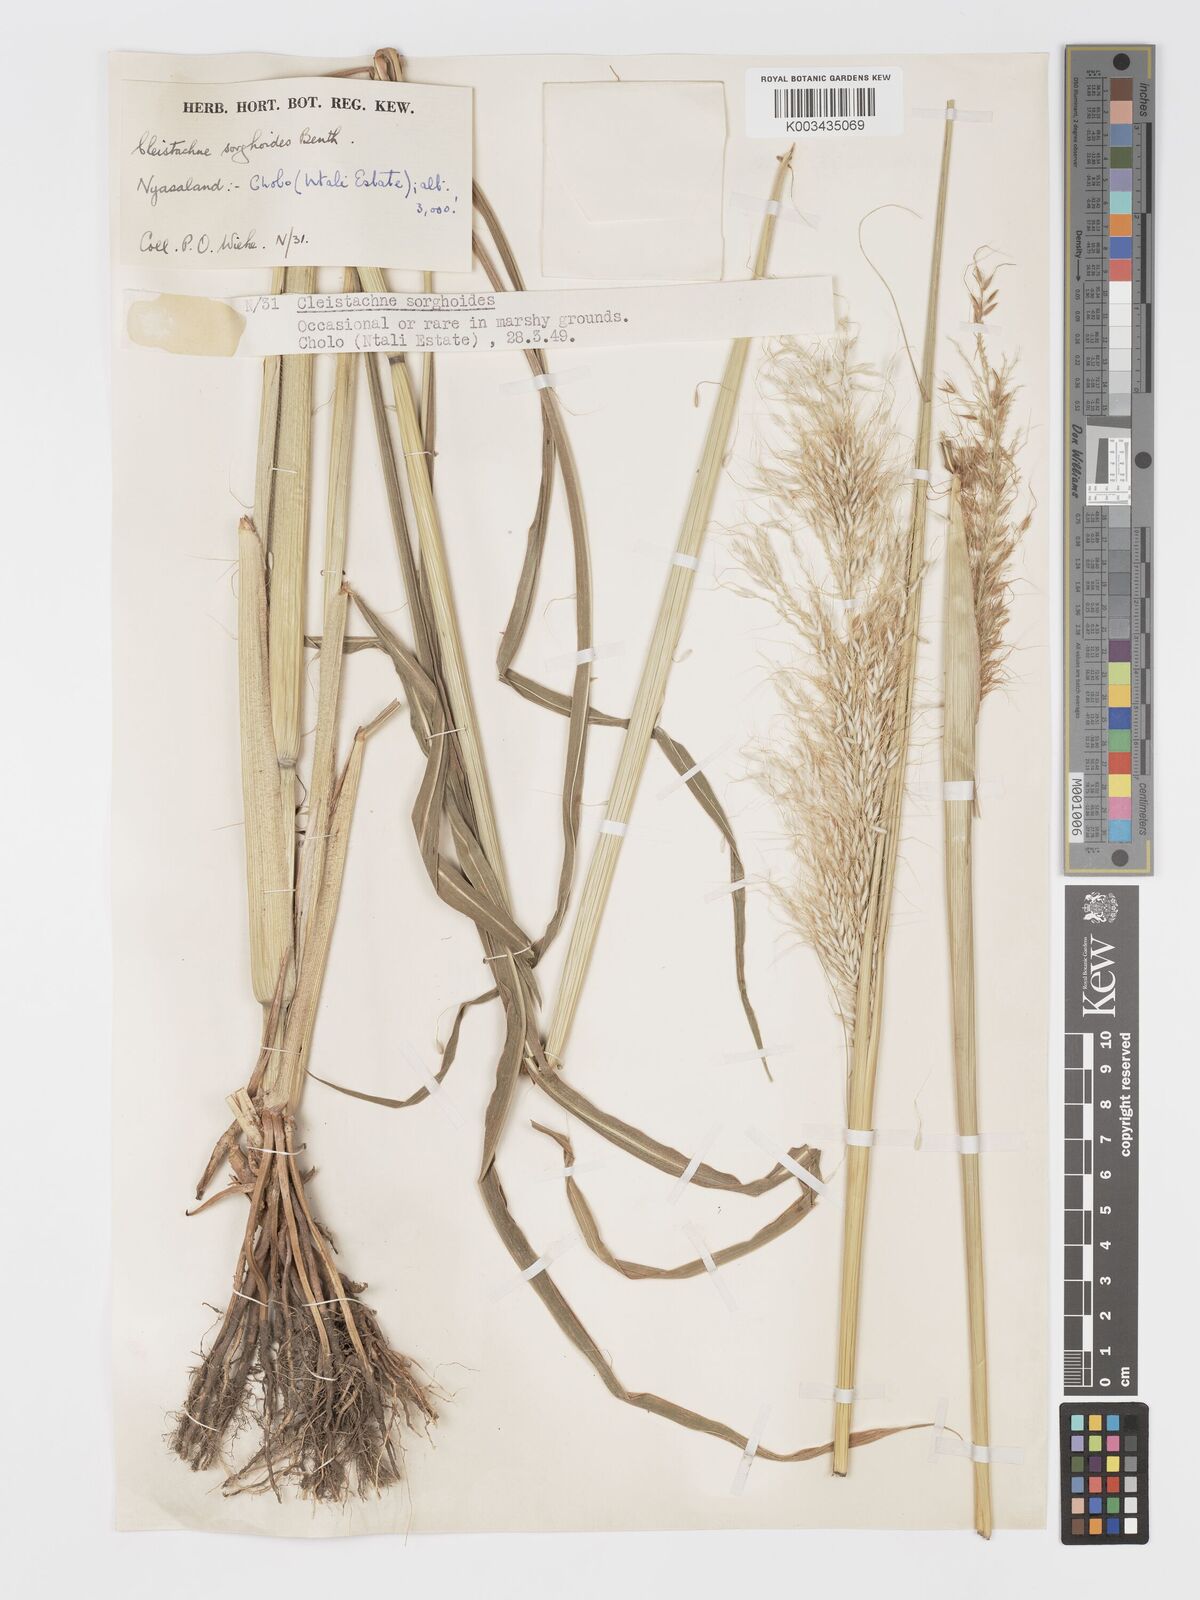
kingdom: Plantae
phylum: Tracheophyta
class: Liliopsida
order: Poales
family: Poaceae
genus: Cleistachne
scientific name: Cleistachne sorghoides
